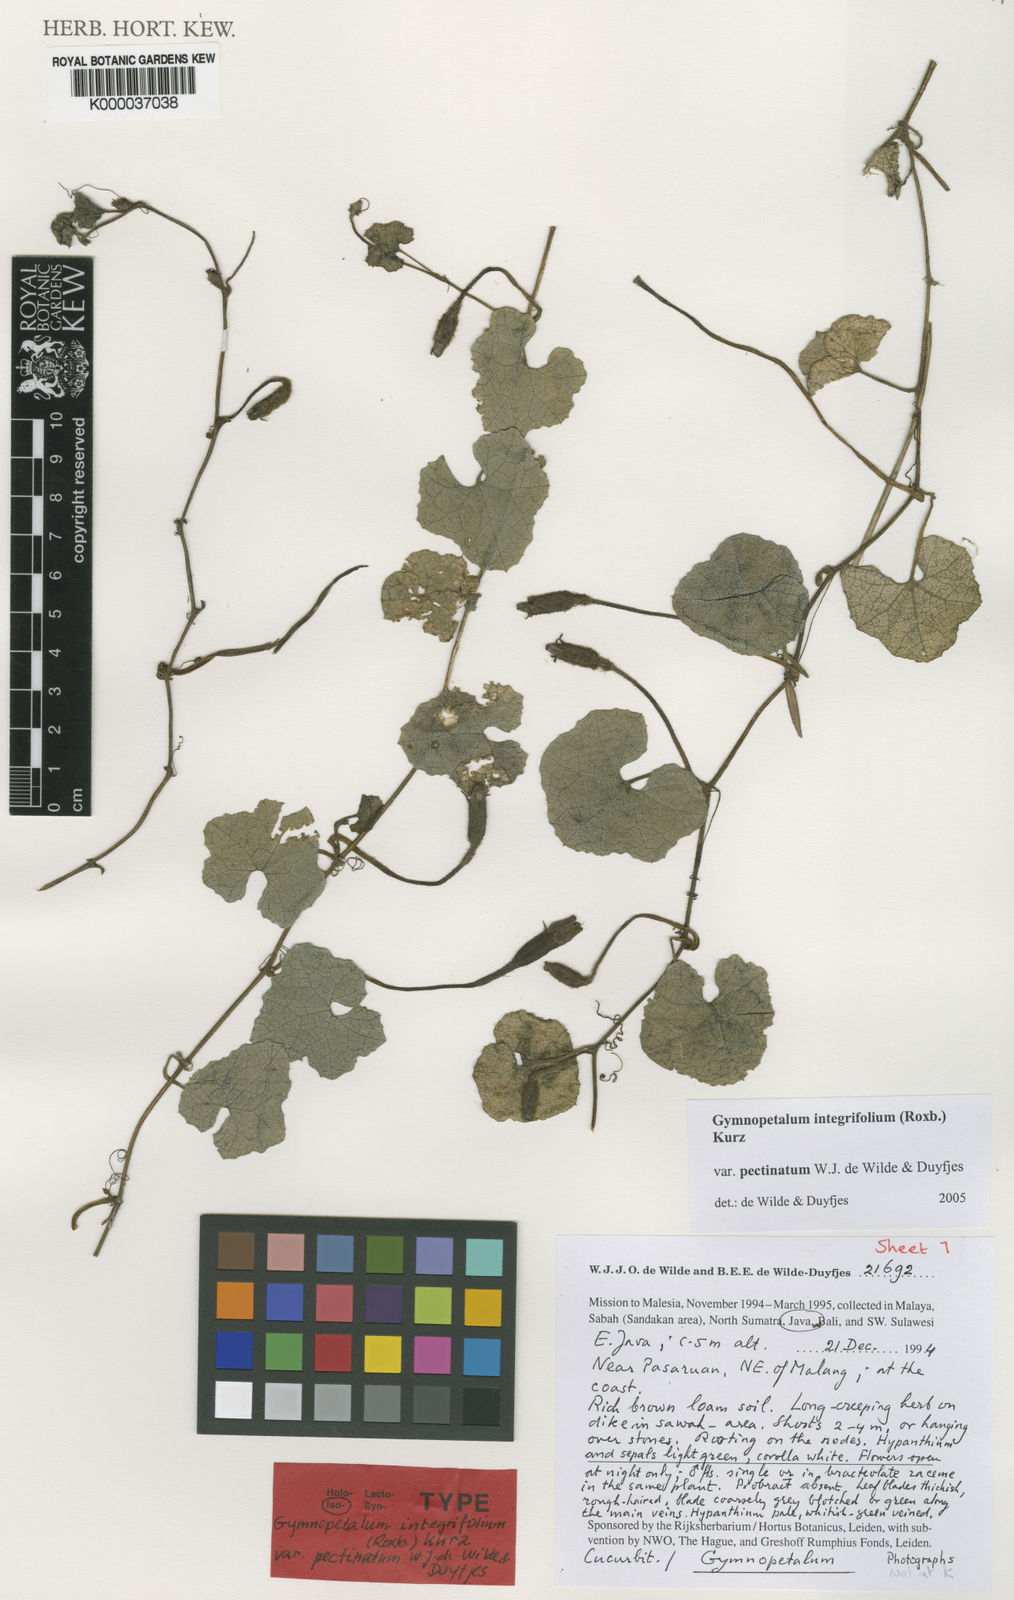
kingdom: Plantae
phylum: Tracheophyta
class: Magnoliopsida
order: Cucurbitales
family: Cucurbitaceae
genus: Trichosanthes
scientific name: Trichosanthes scabra
